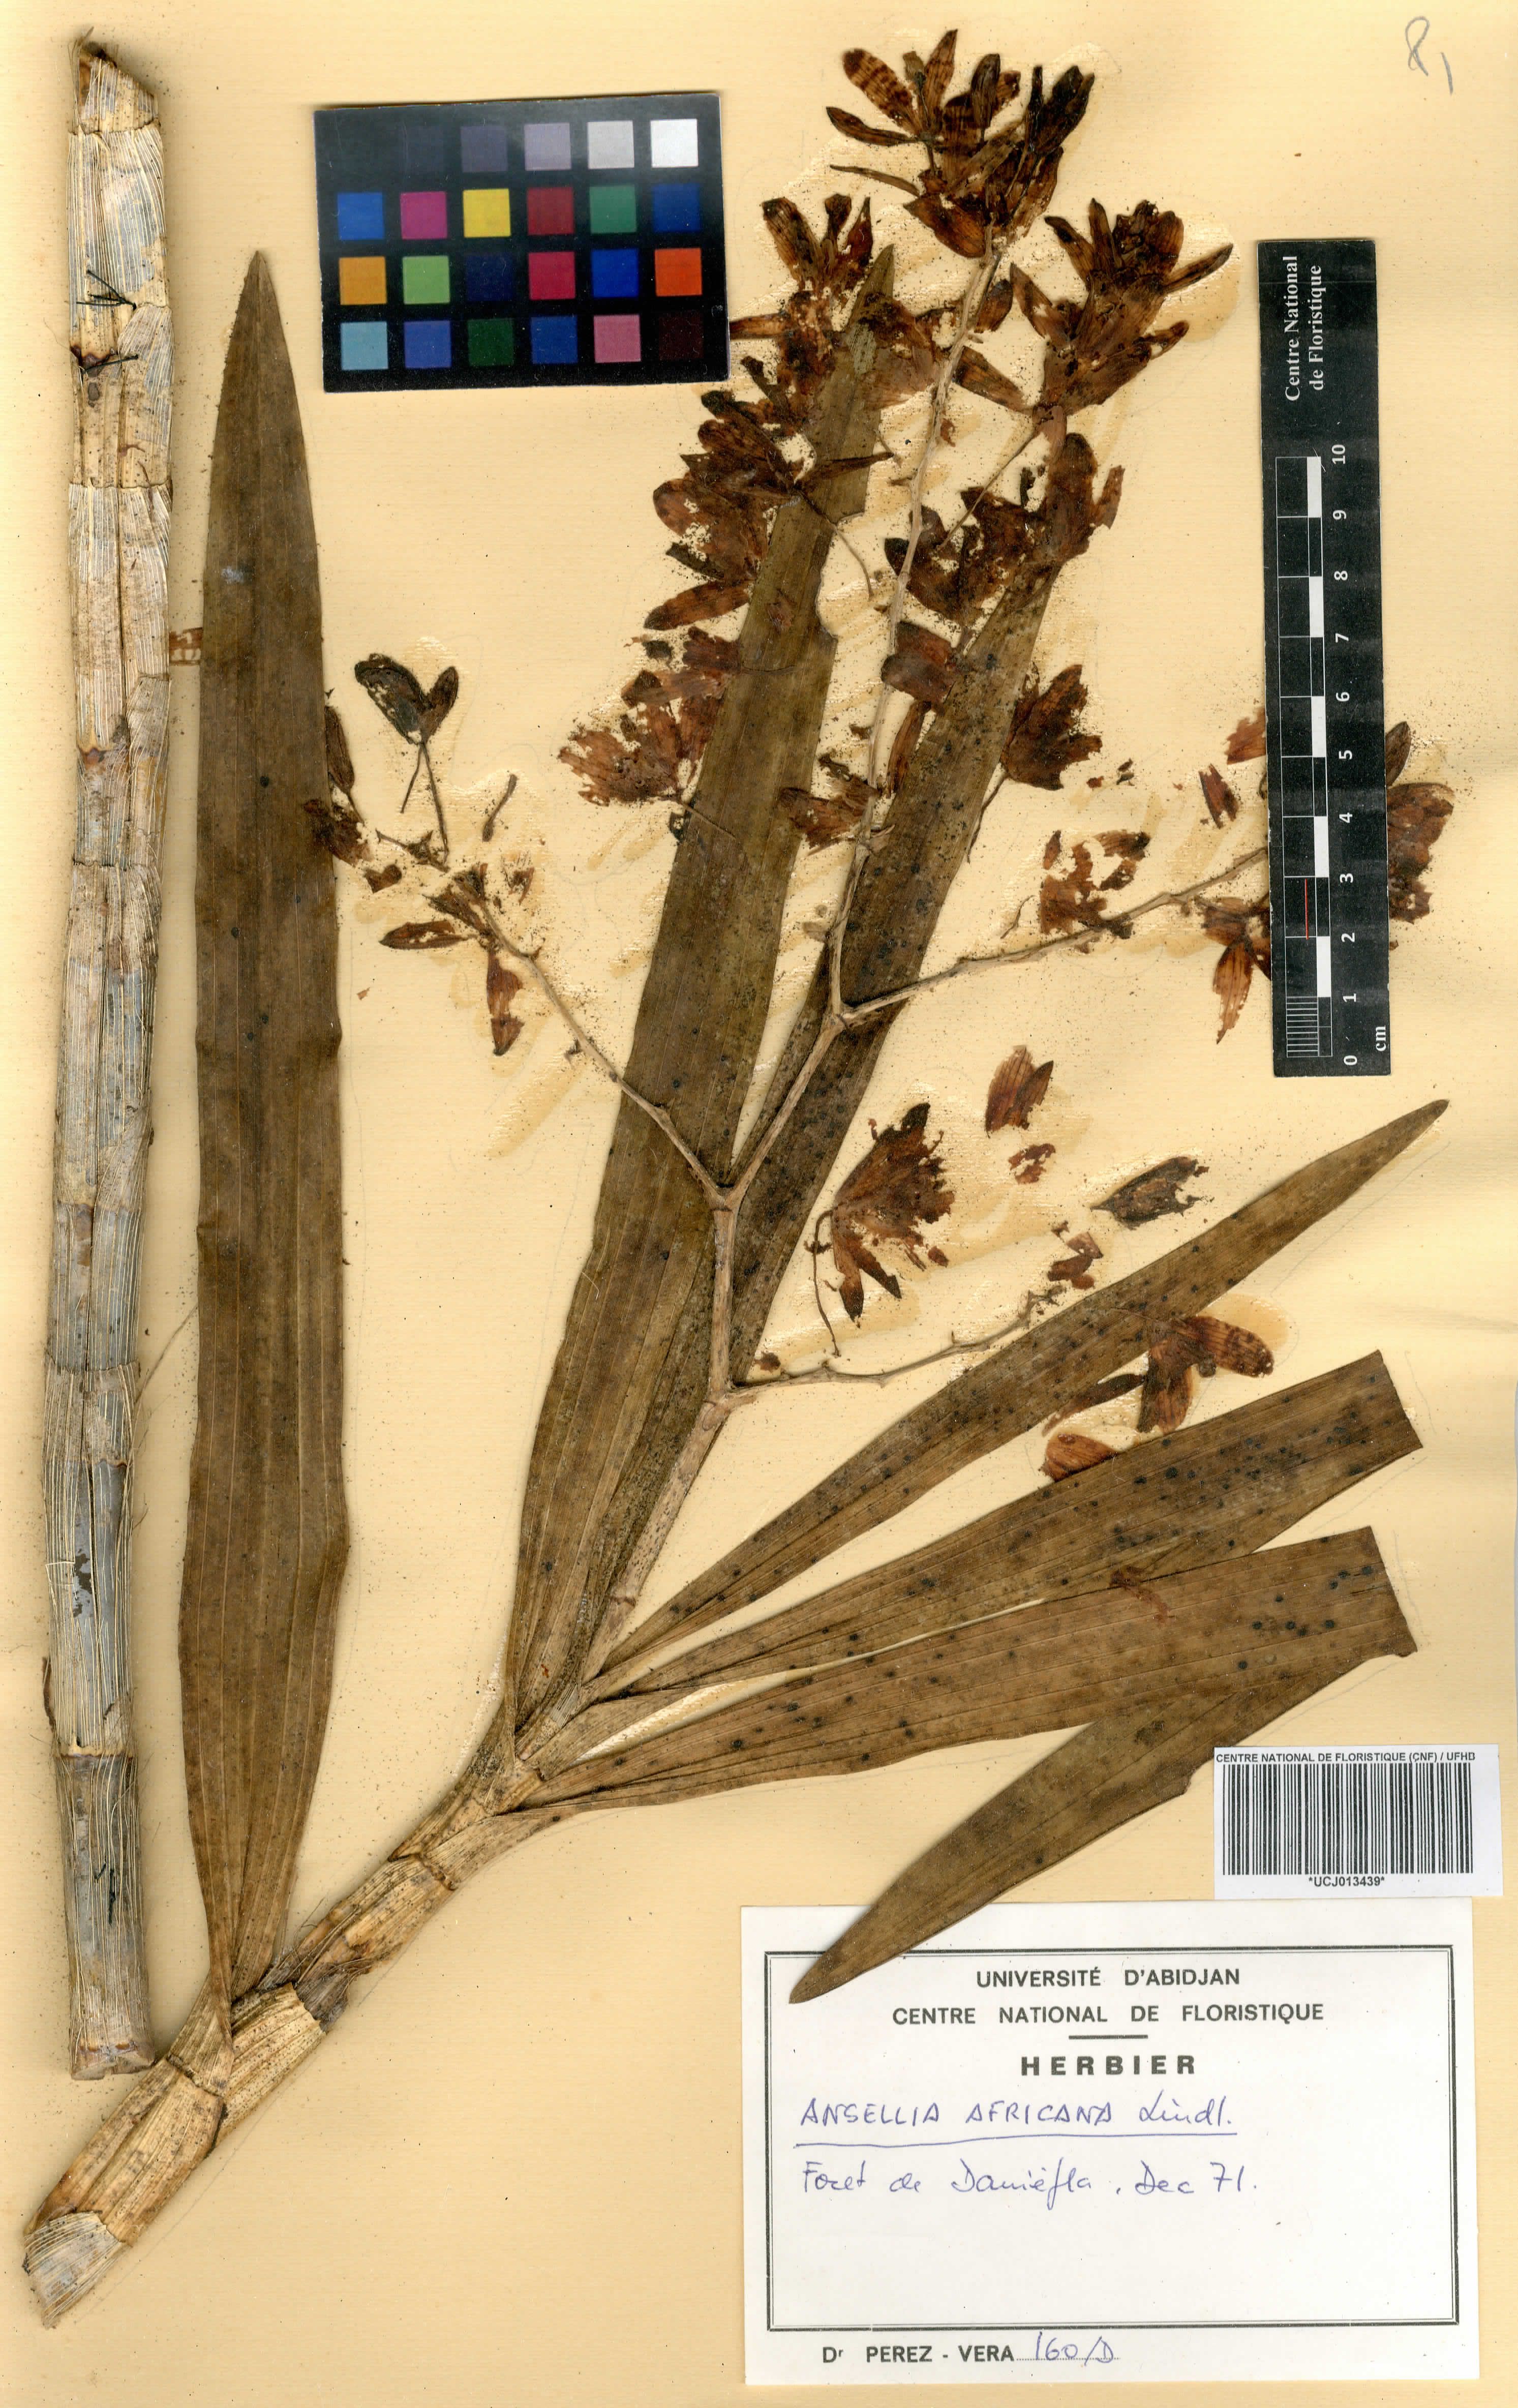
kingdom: Plantae
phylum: Tracheophyta
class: Liliopsida
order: Asparagales
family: Orchidaceae
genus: Ansellia
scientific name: Ansellia africana
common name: African ansellia
